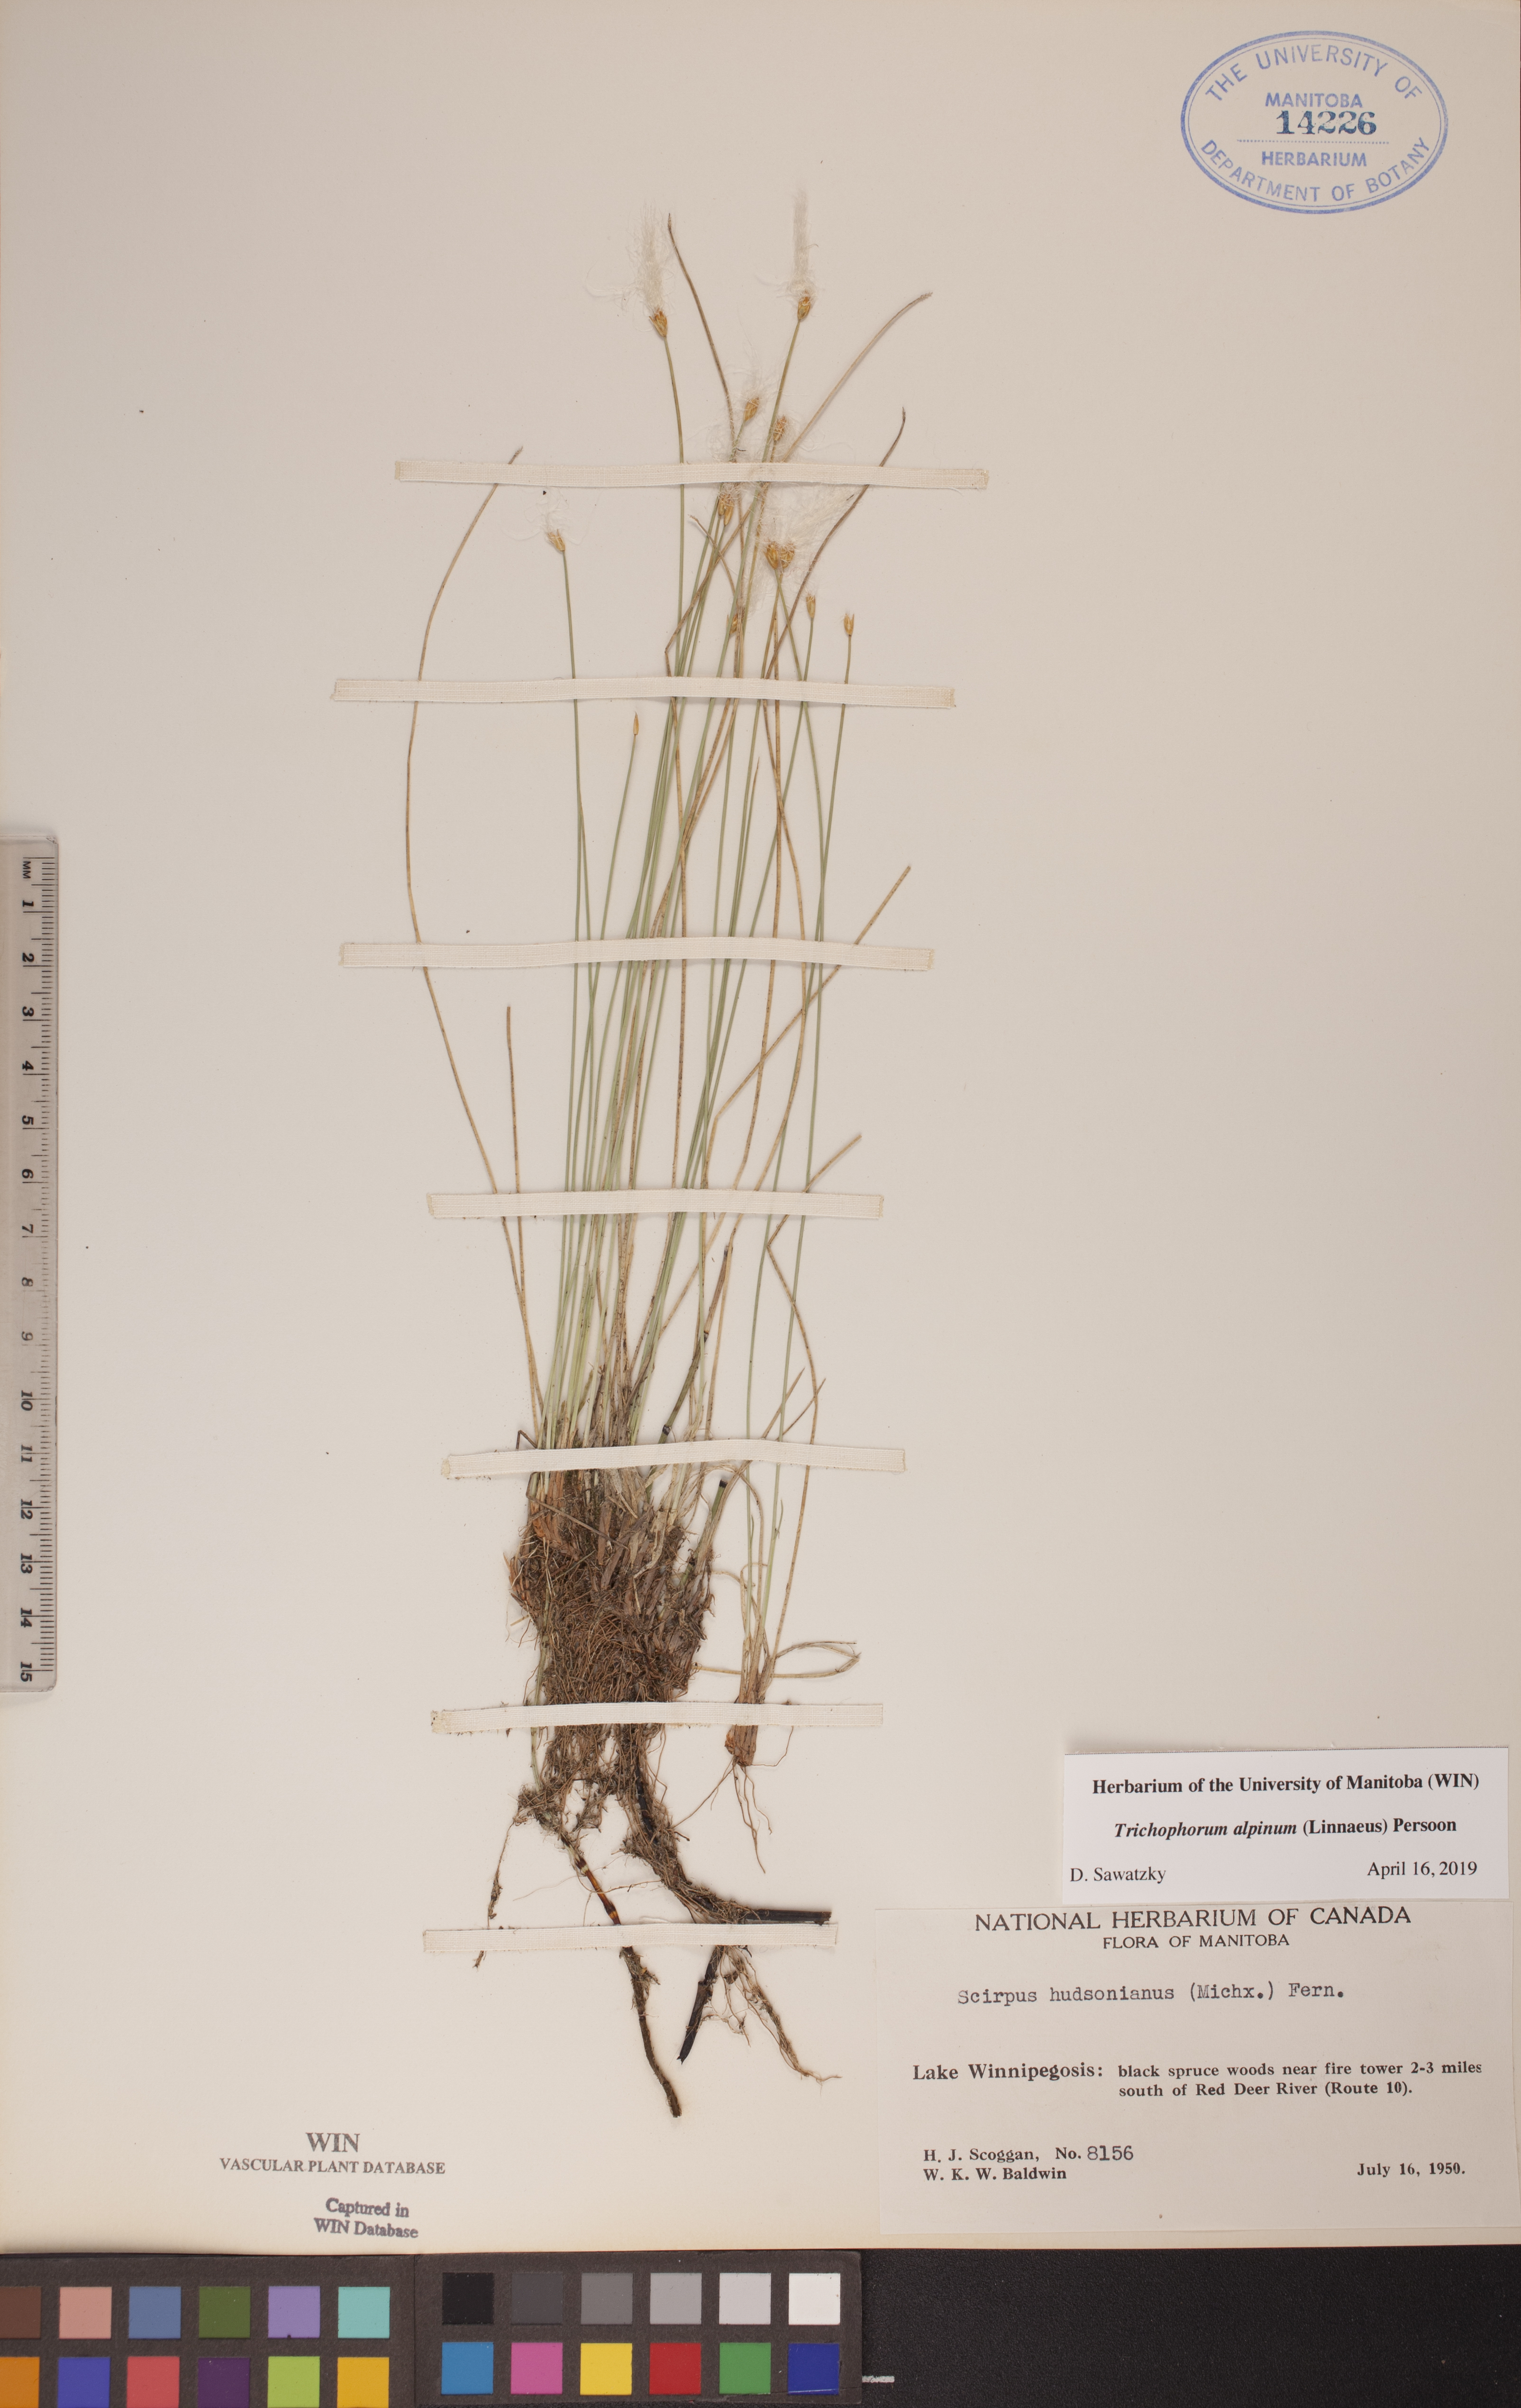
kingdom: Plantae
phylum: Tracheophyta
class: Liliopsida
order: Poales
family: Cyperaceae
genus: Trichophorum
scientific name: Trichophorum alpinum
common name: Alpine bulrush
